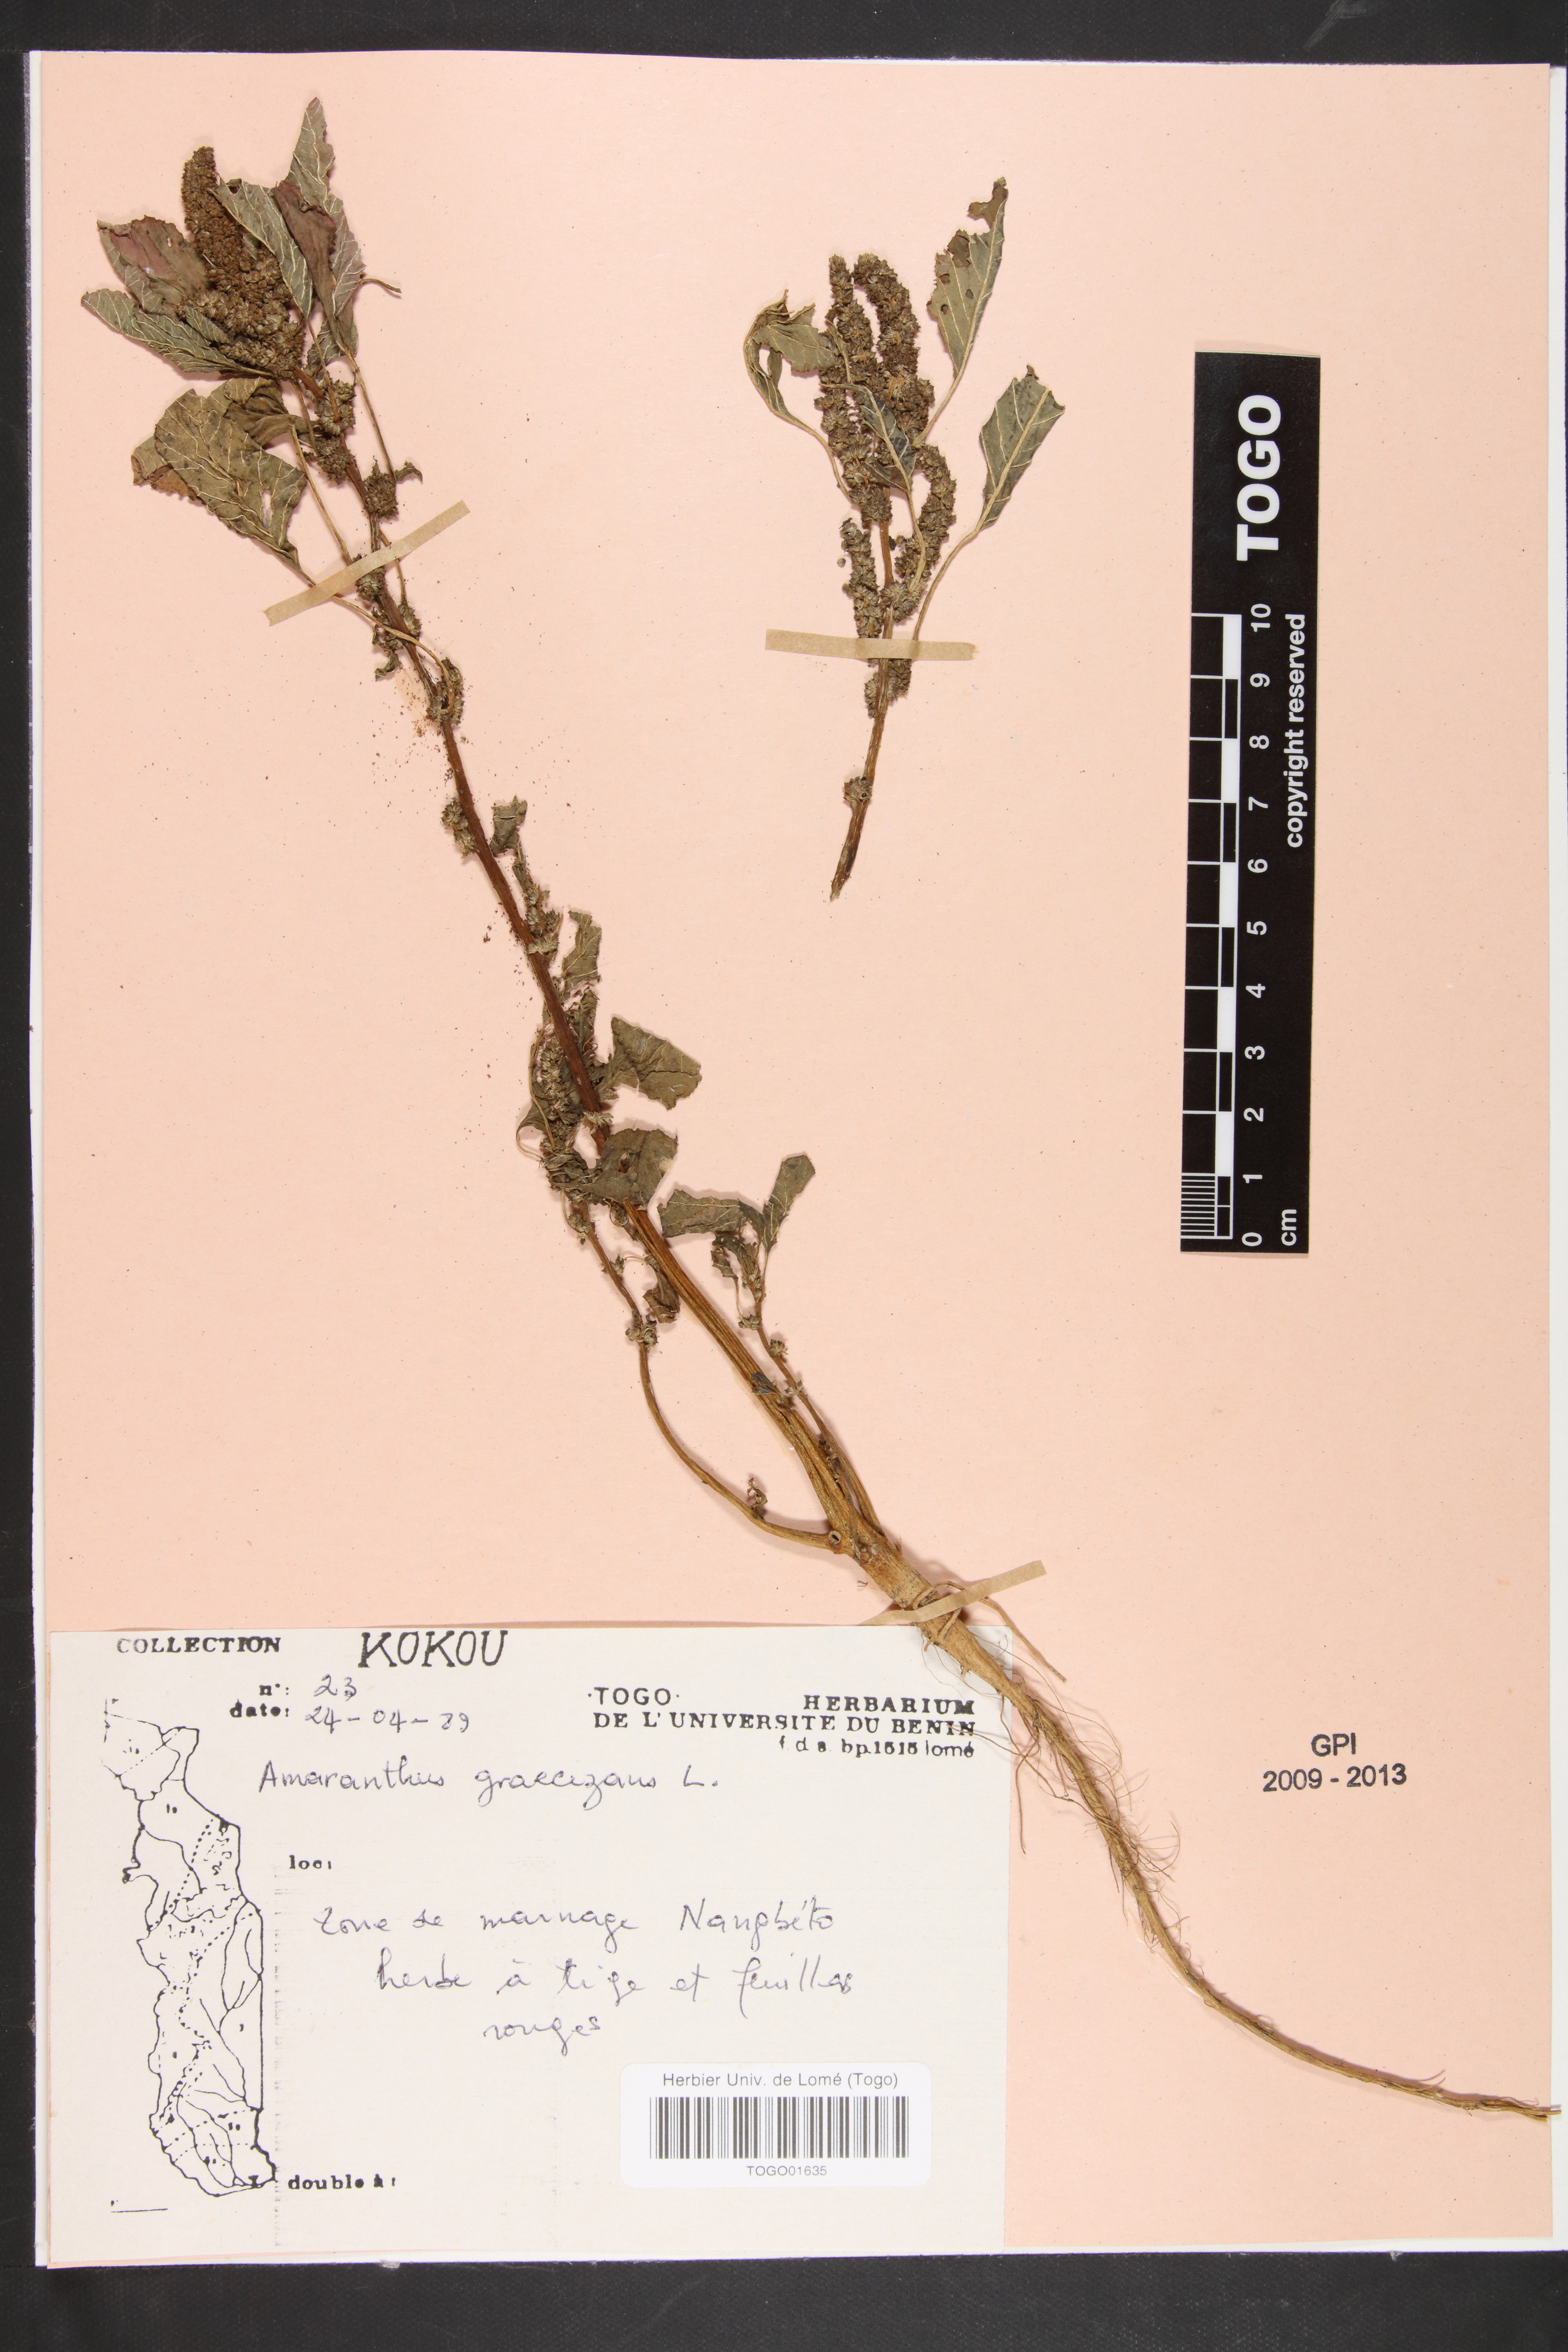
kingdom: Plantae
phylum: Tracheophyta
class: Magnoliopsida
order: Caryophyllales
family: Amaranthaceae
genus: Amaranthus
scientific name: Amaranthus cruentus
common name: Purple amaranth
